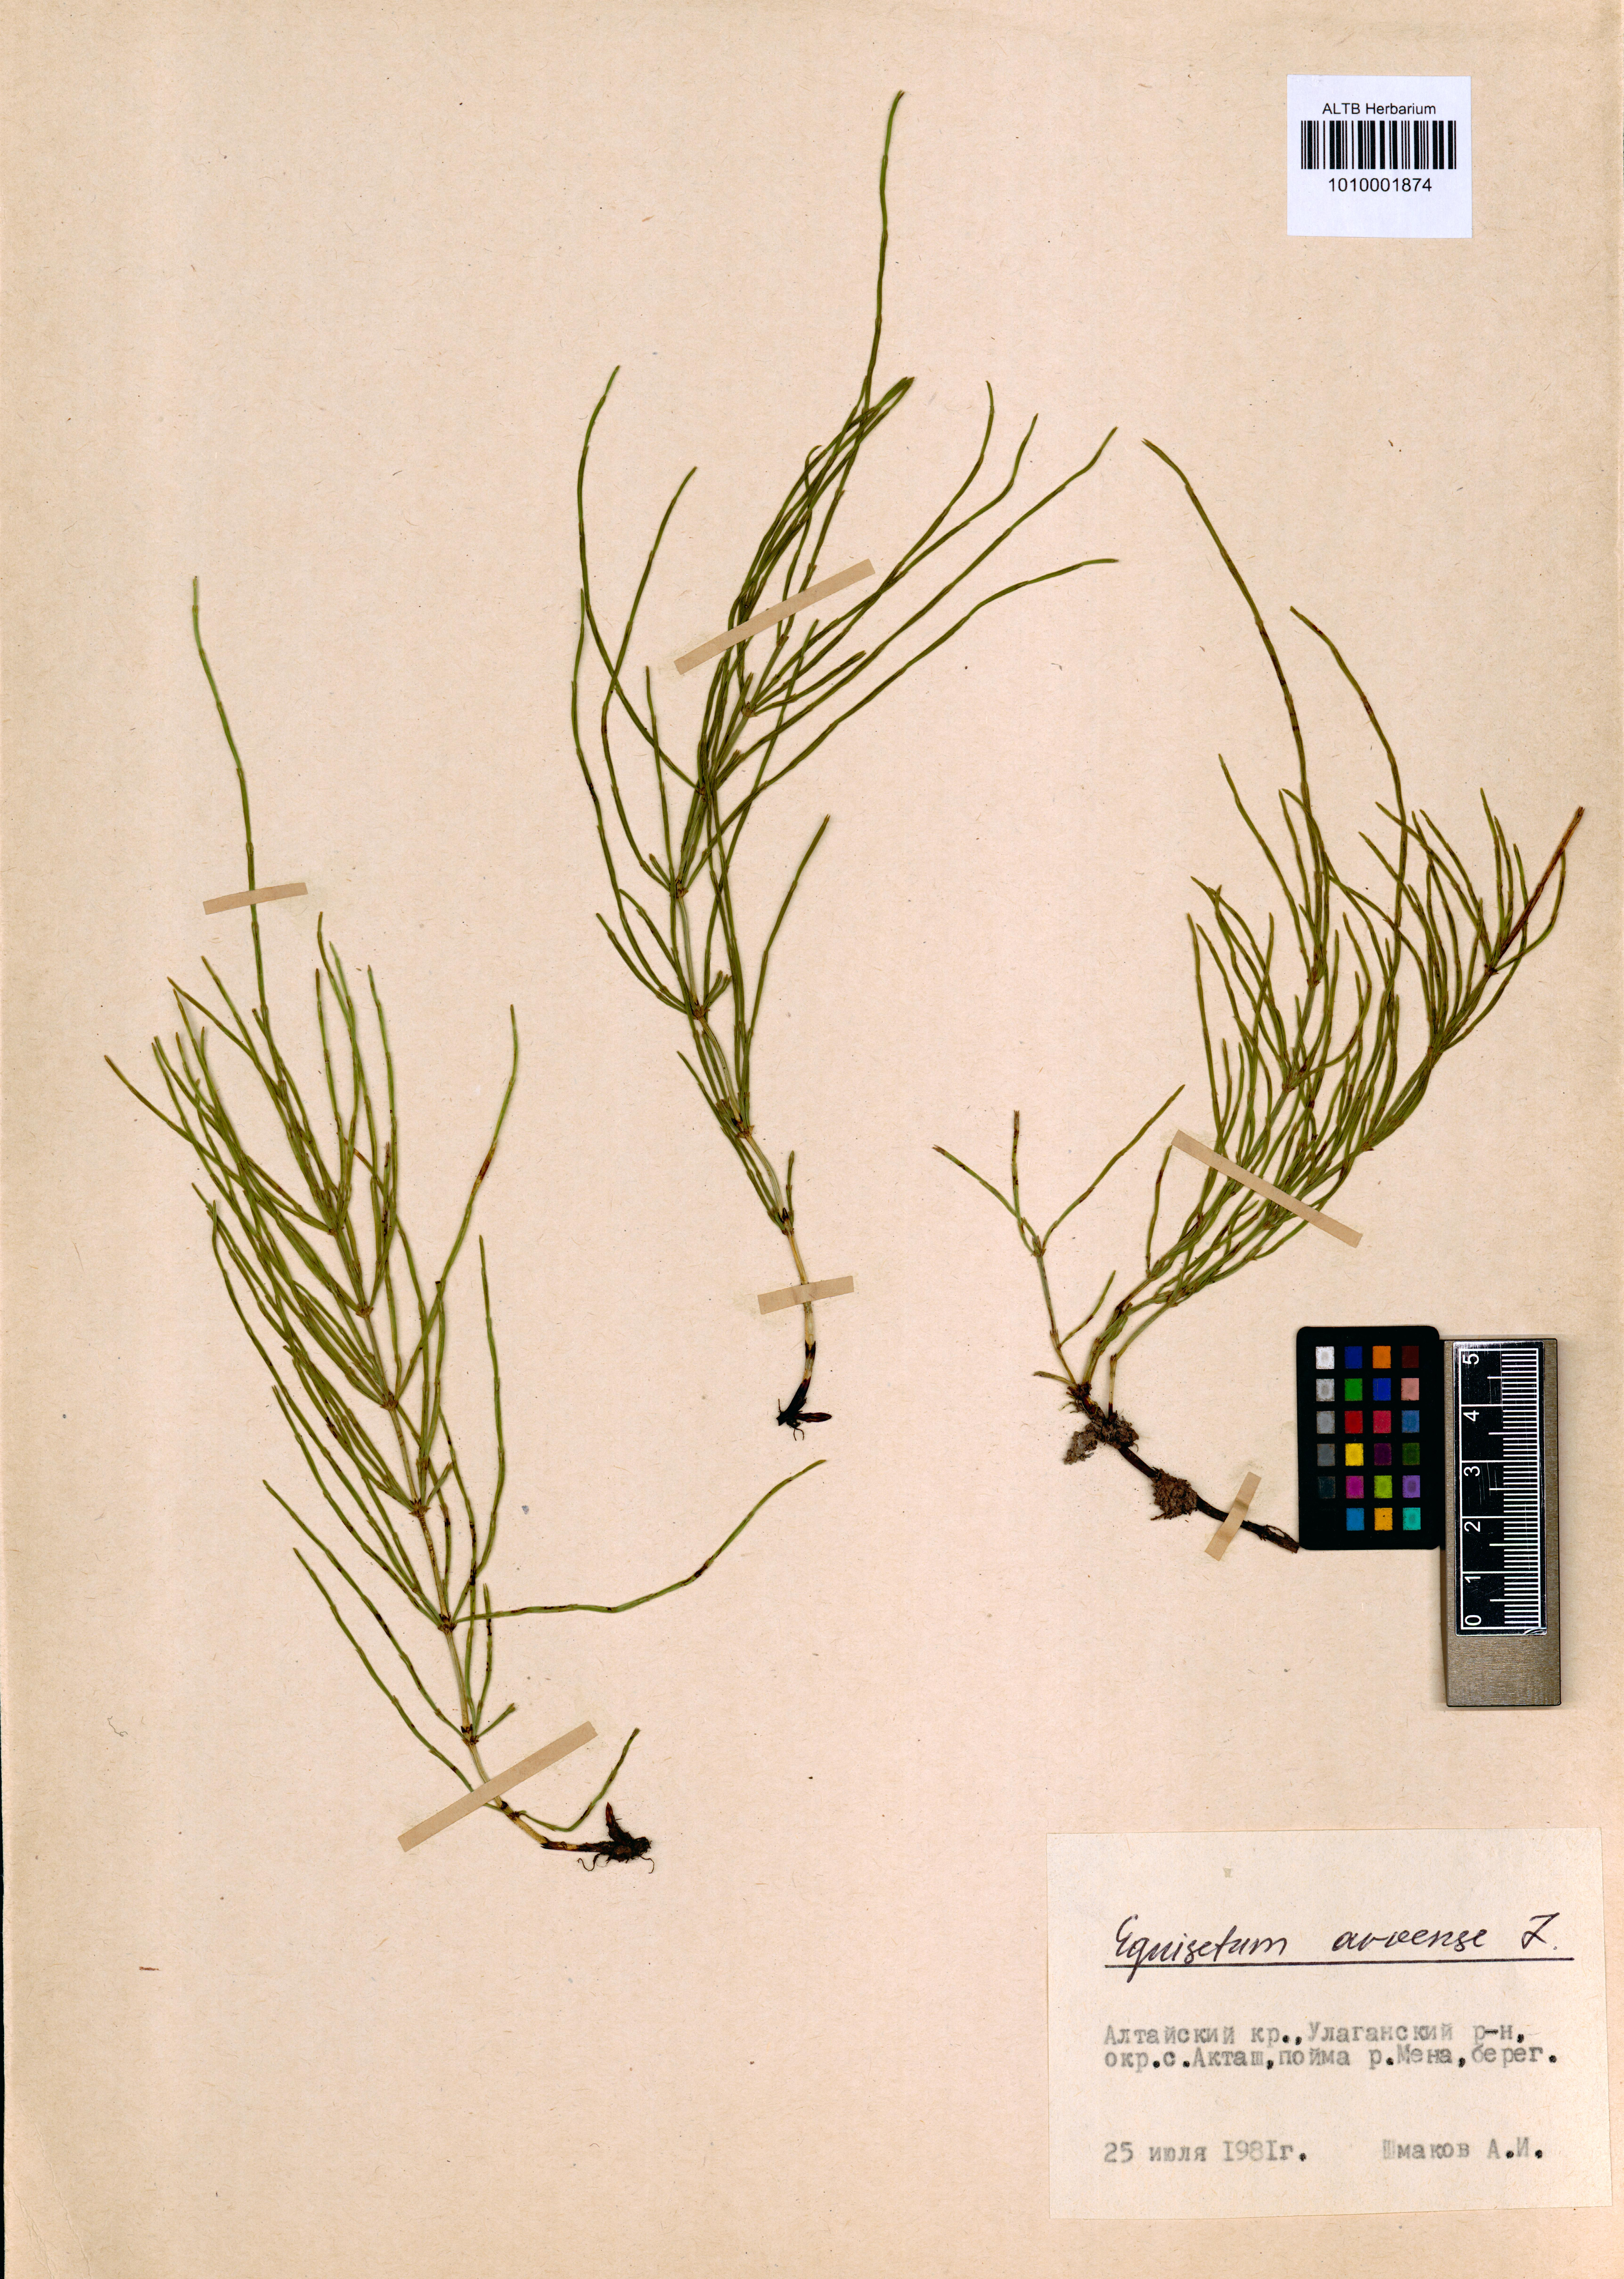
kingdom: Plantae
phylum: Tracheophyta
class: Polypodiopsida
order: Equisetales
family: Equisetaceae
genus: Equisetum
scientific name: Equisetum arvense
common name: Field horsetail
